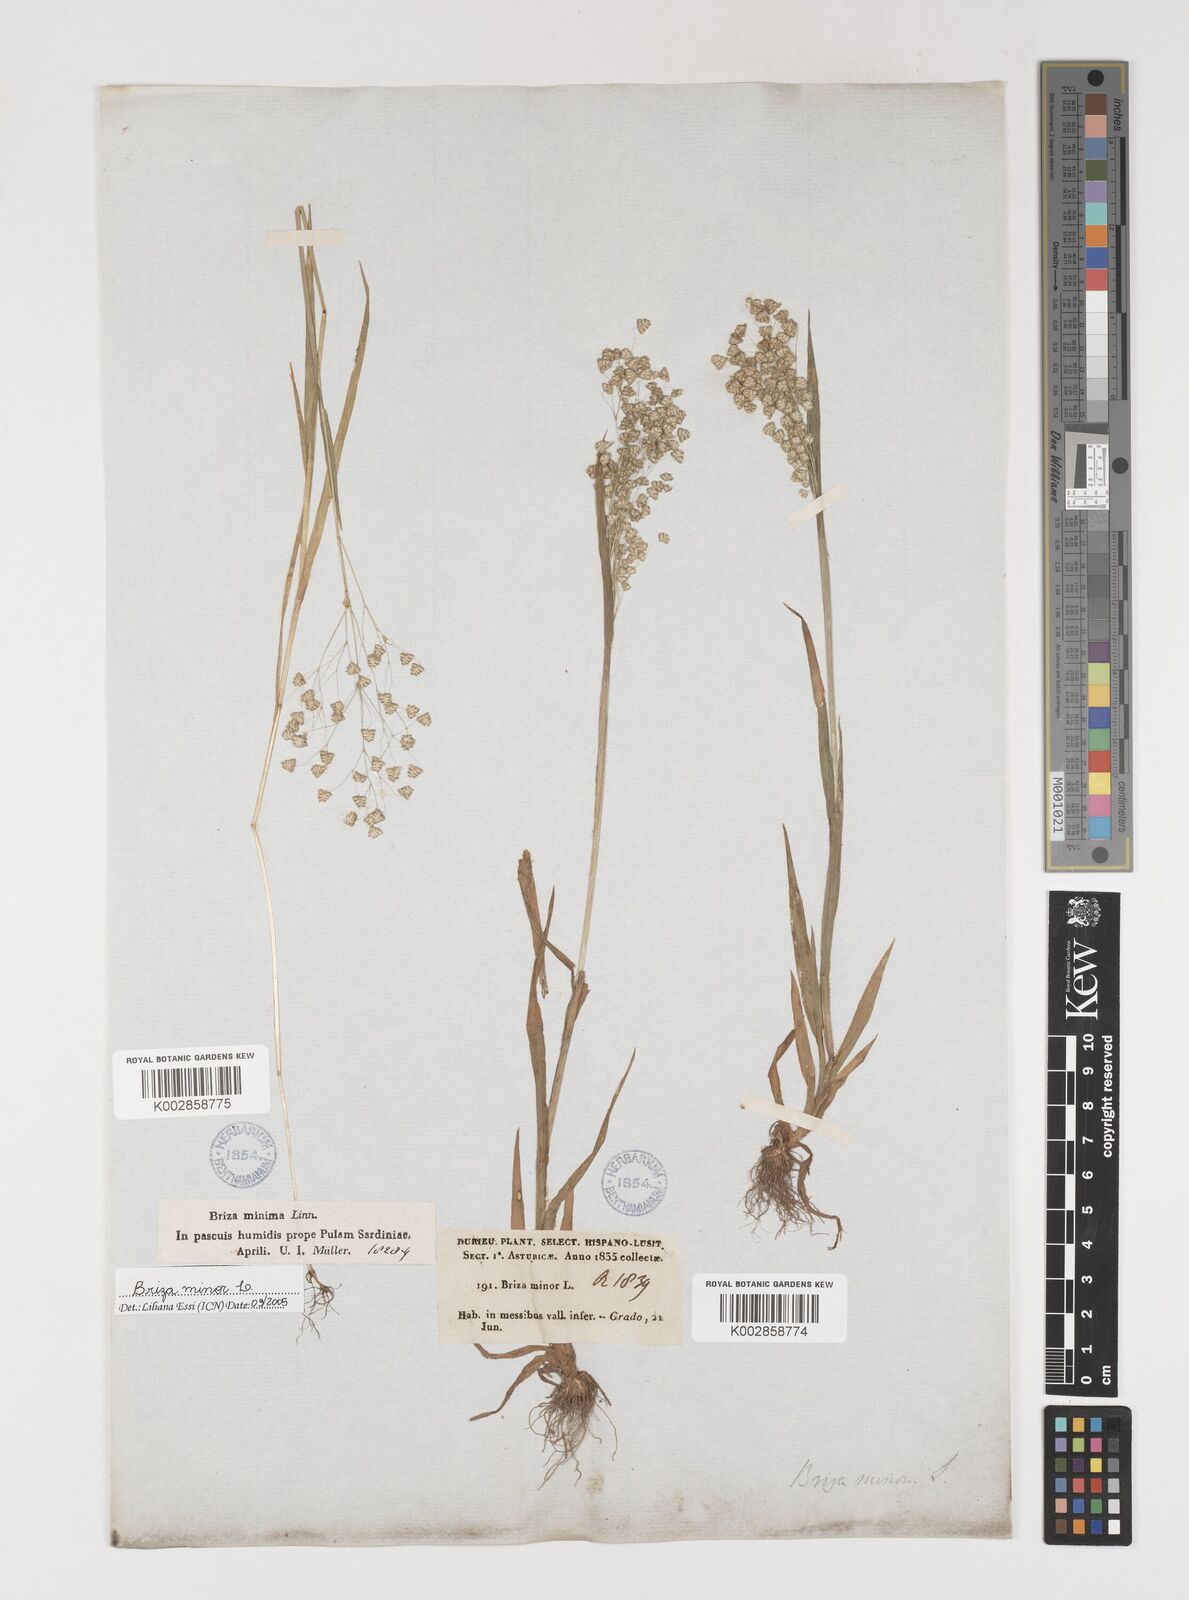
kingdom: Plantae
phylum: Tracheophyta
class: Liliopsida
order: Poales
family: Poaceae
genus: Briza
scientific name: Briza minor
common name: Lesser quaking-grass
